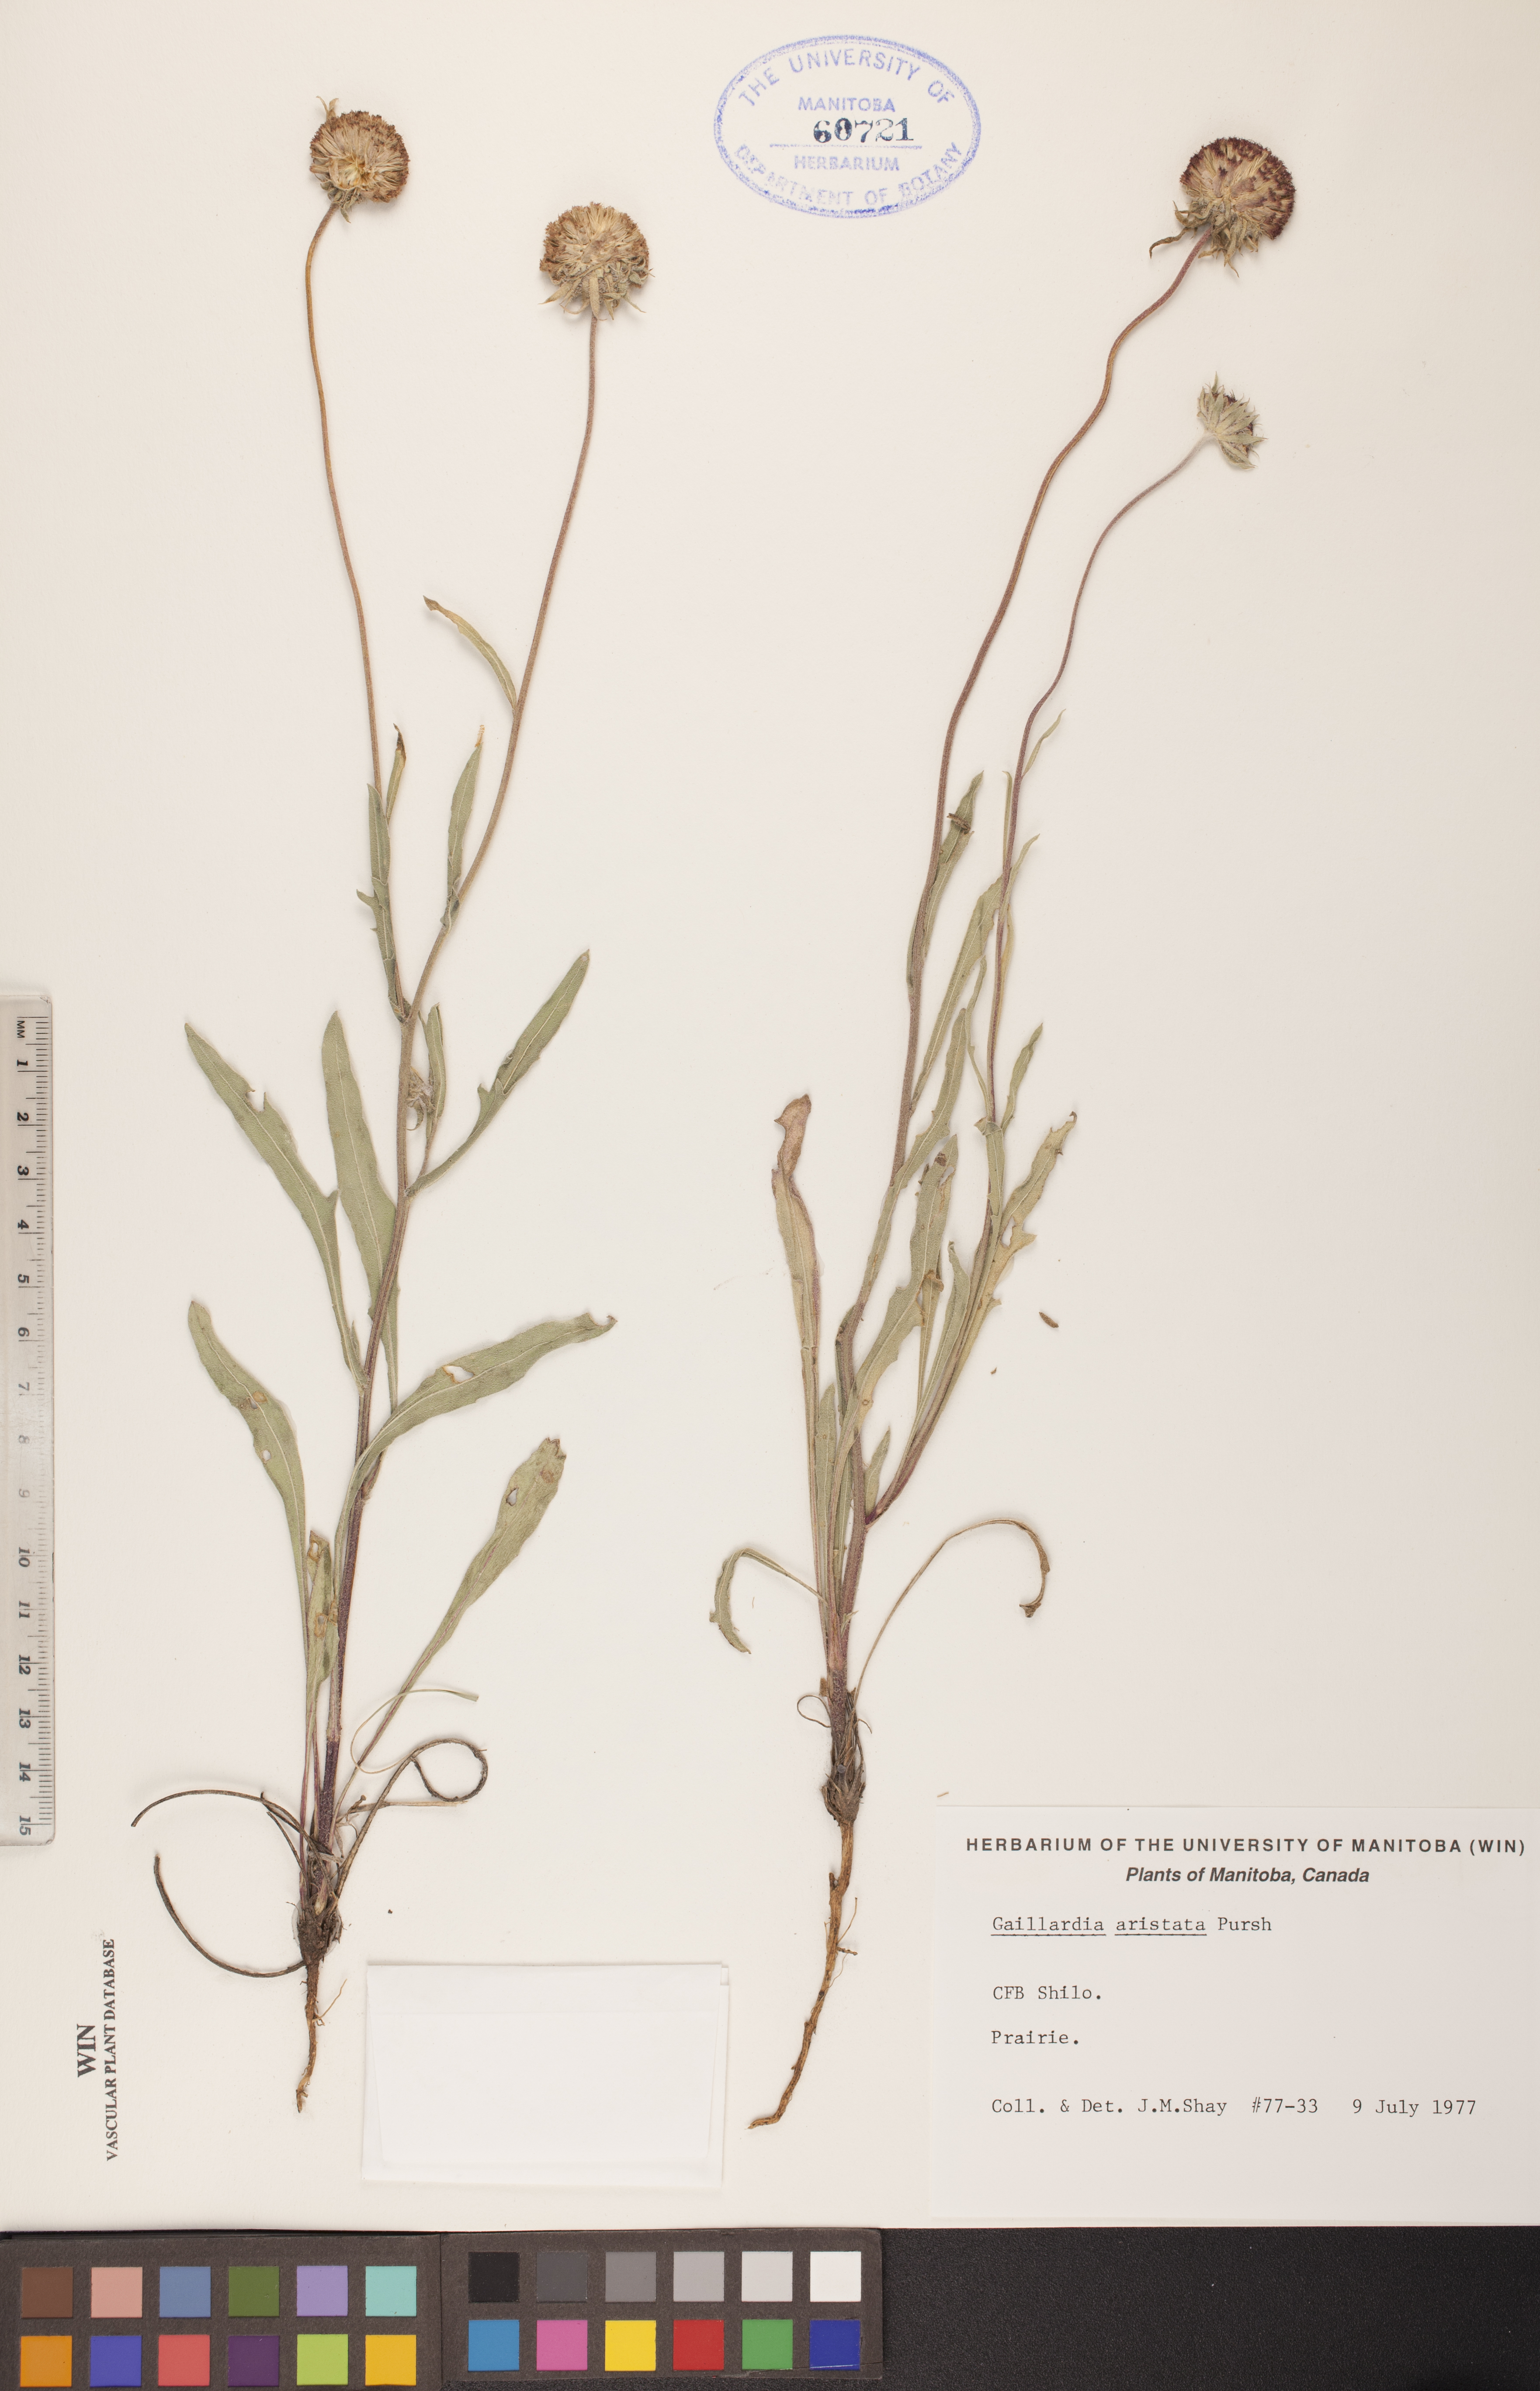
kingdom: Plantae
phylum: Tracheophyta
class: Magnoliopsida
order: Asterales
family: Asteraceae
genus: Gaillardia
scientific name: Gaillardia aristata
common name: Blanket-flower
